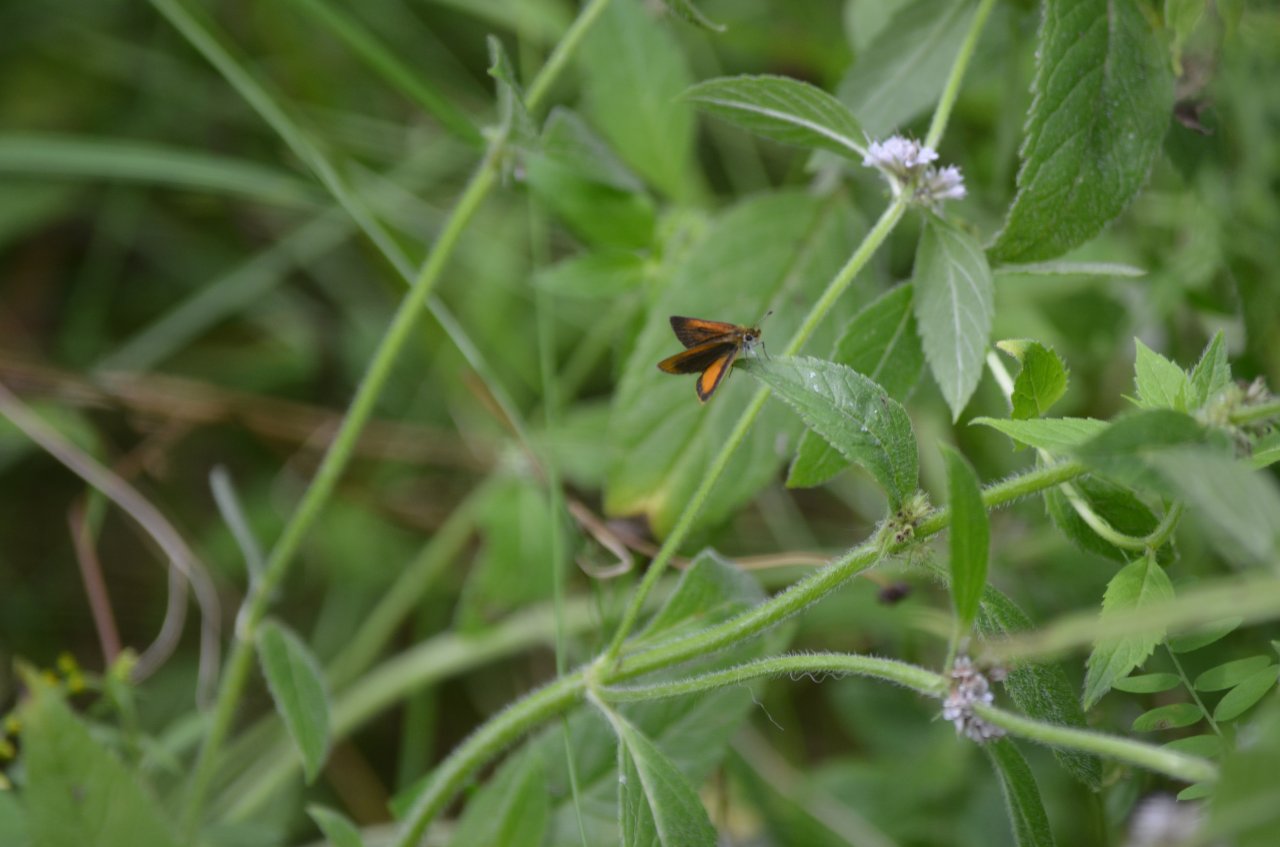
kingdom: Animalia
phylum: Arthropoda
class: Insecta
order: Lepidoptera
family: Hesperiidae
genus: Ancyloxypha
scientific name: Ancyloxypha numitor
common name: Least Skipper
